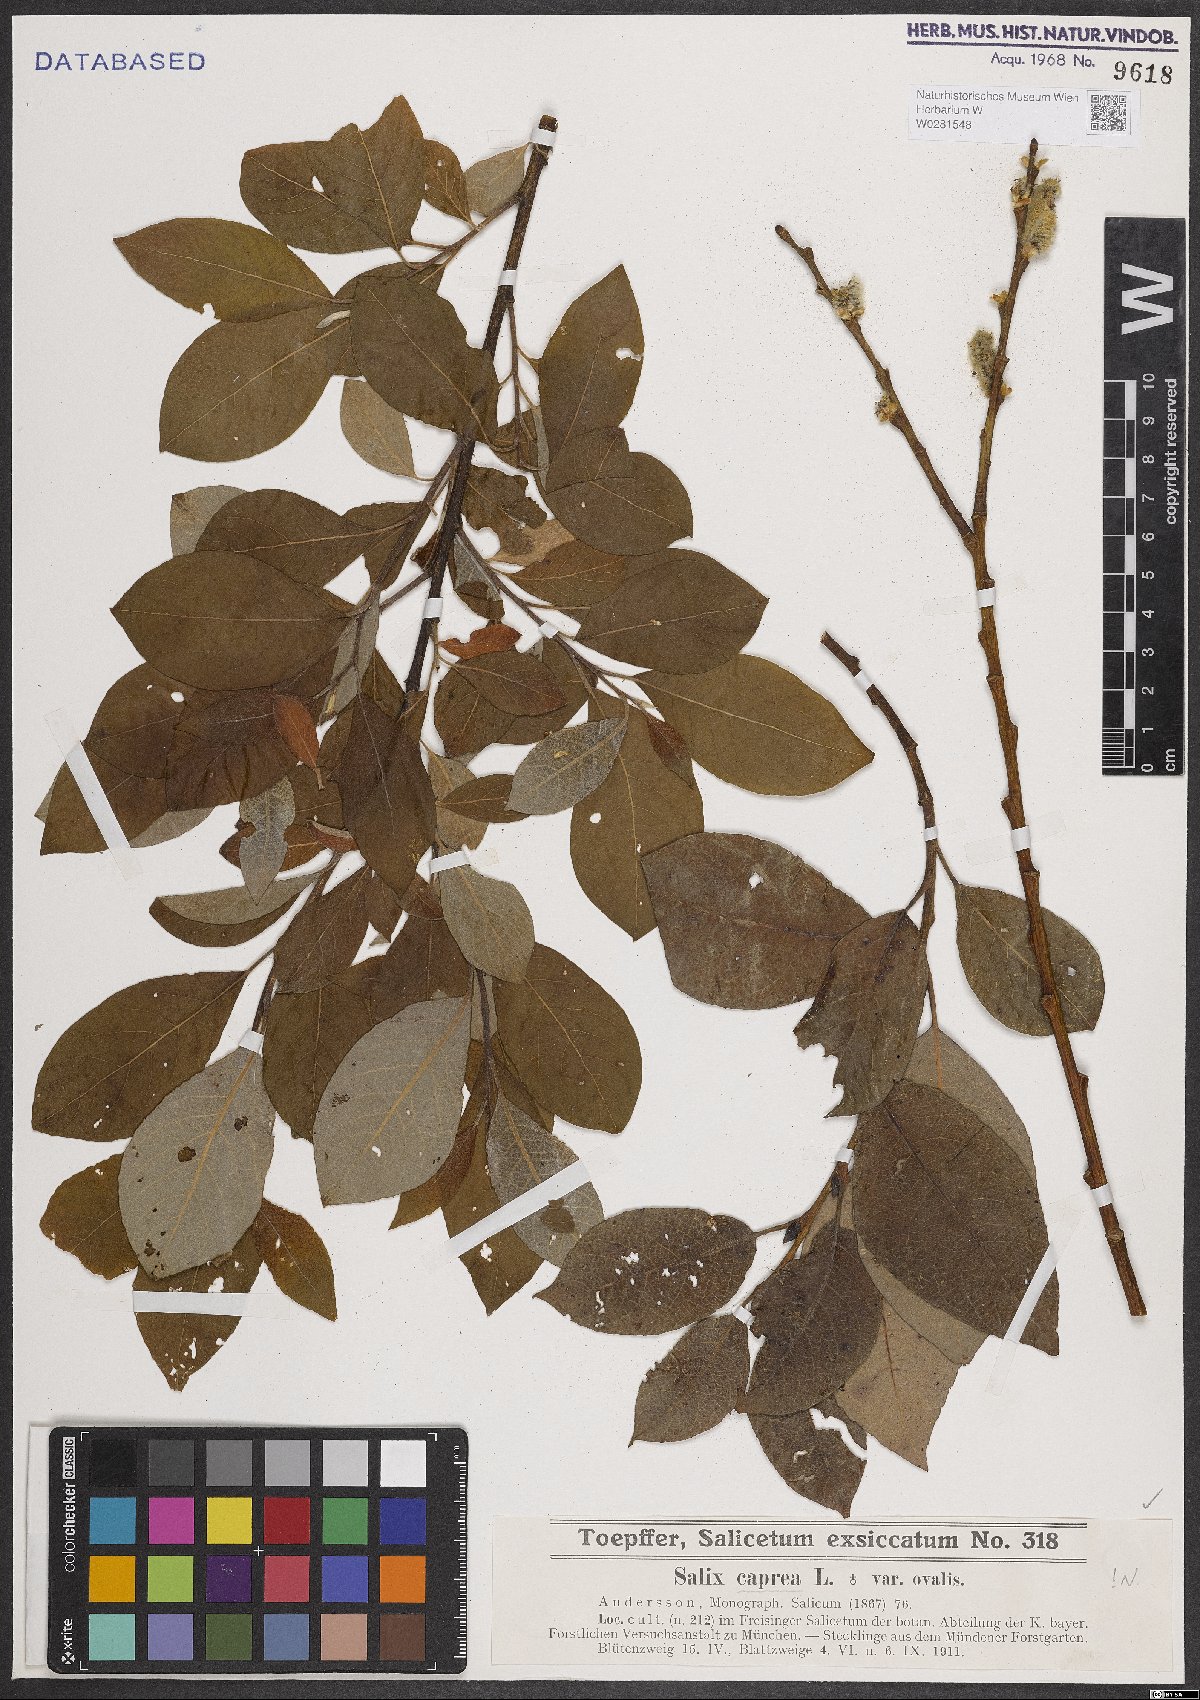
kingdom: Plantae
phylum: Tracheophyta
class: Magnoliopsida
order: Malpighiales
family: Salicaceae
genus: Salix
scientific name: Salix caprea
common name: Goat willow
